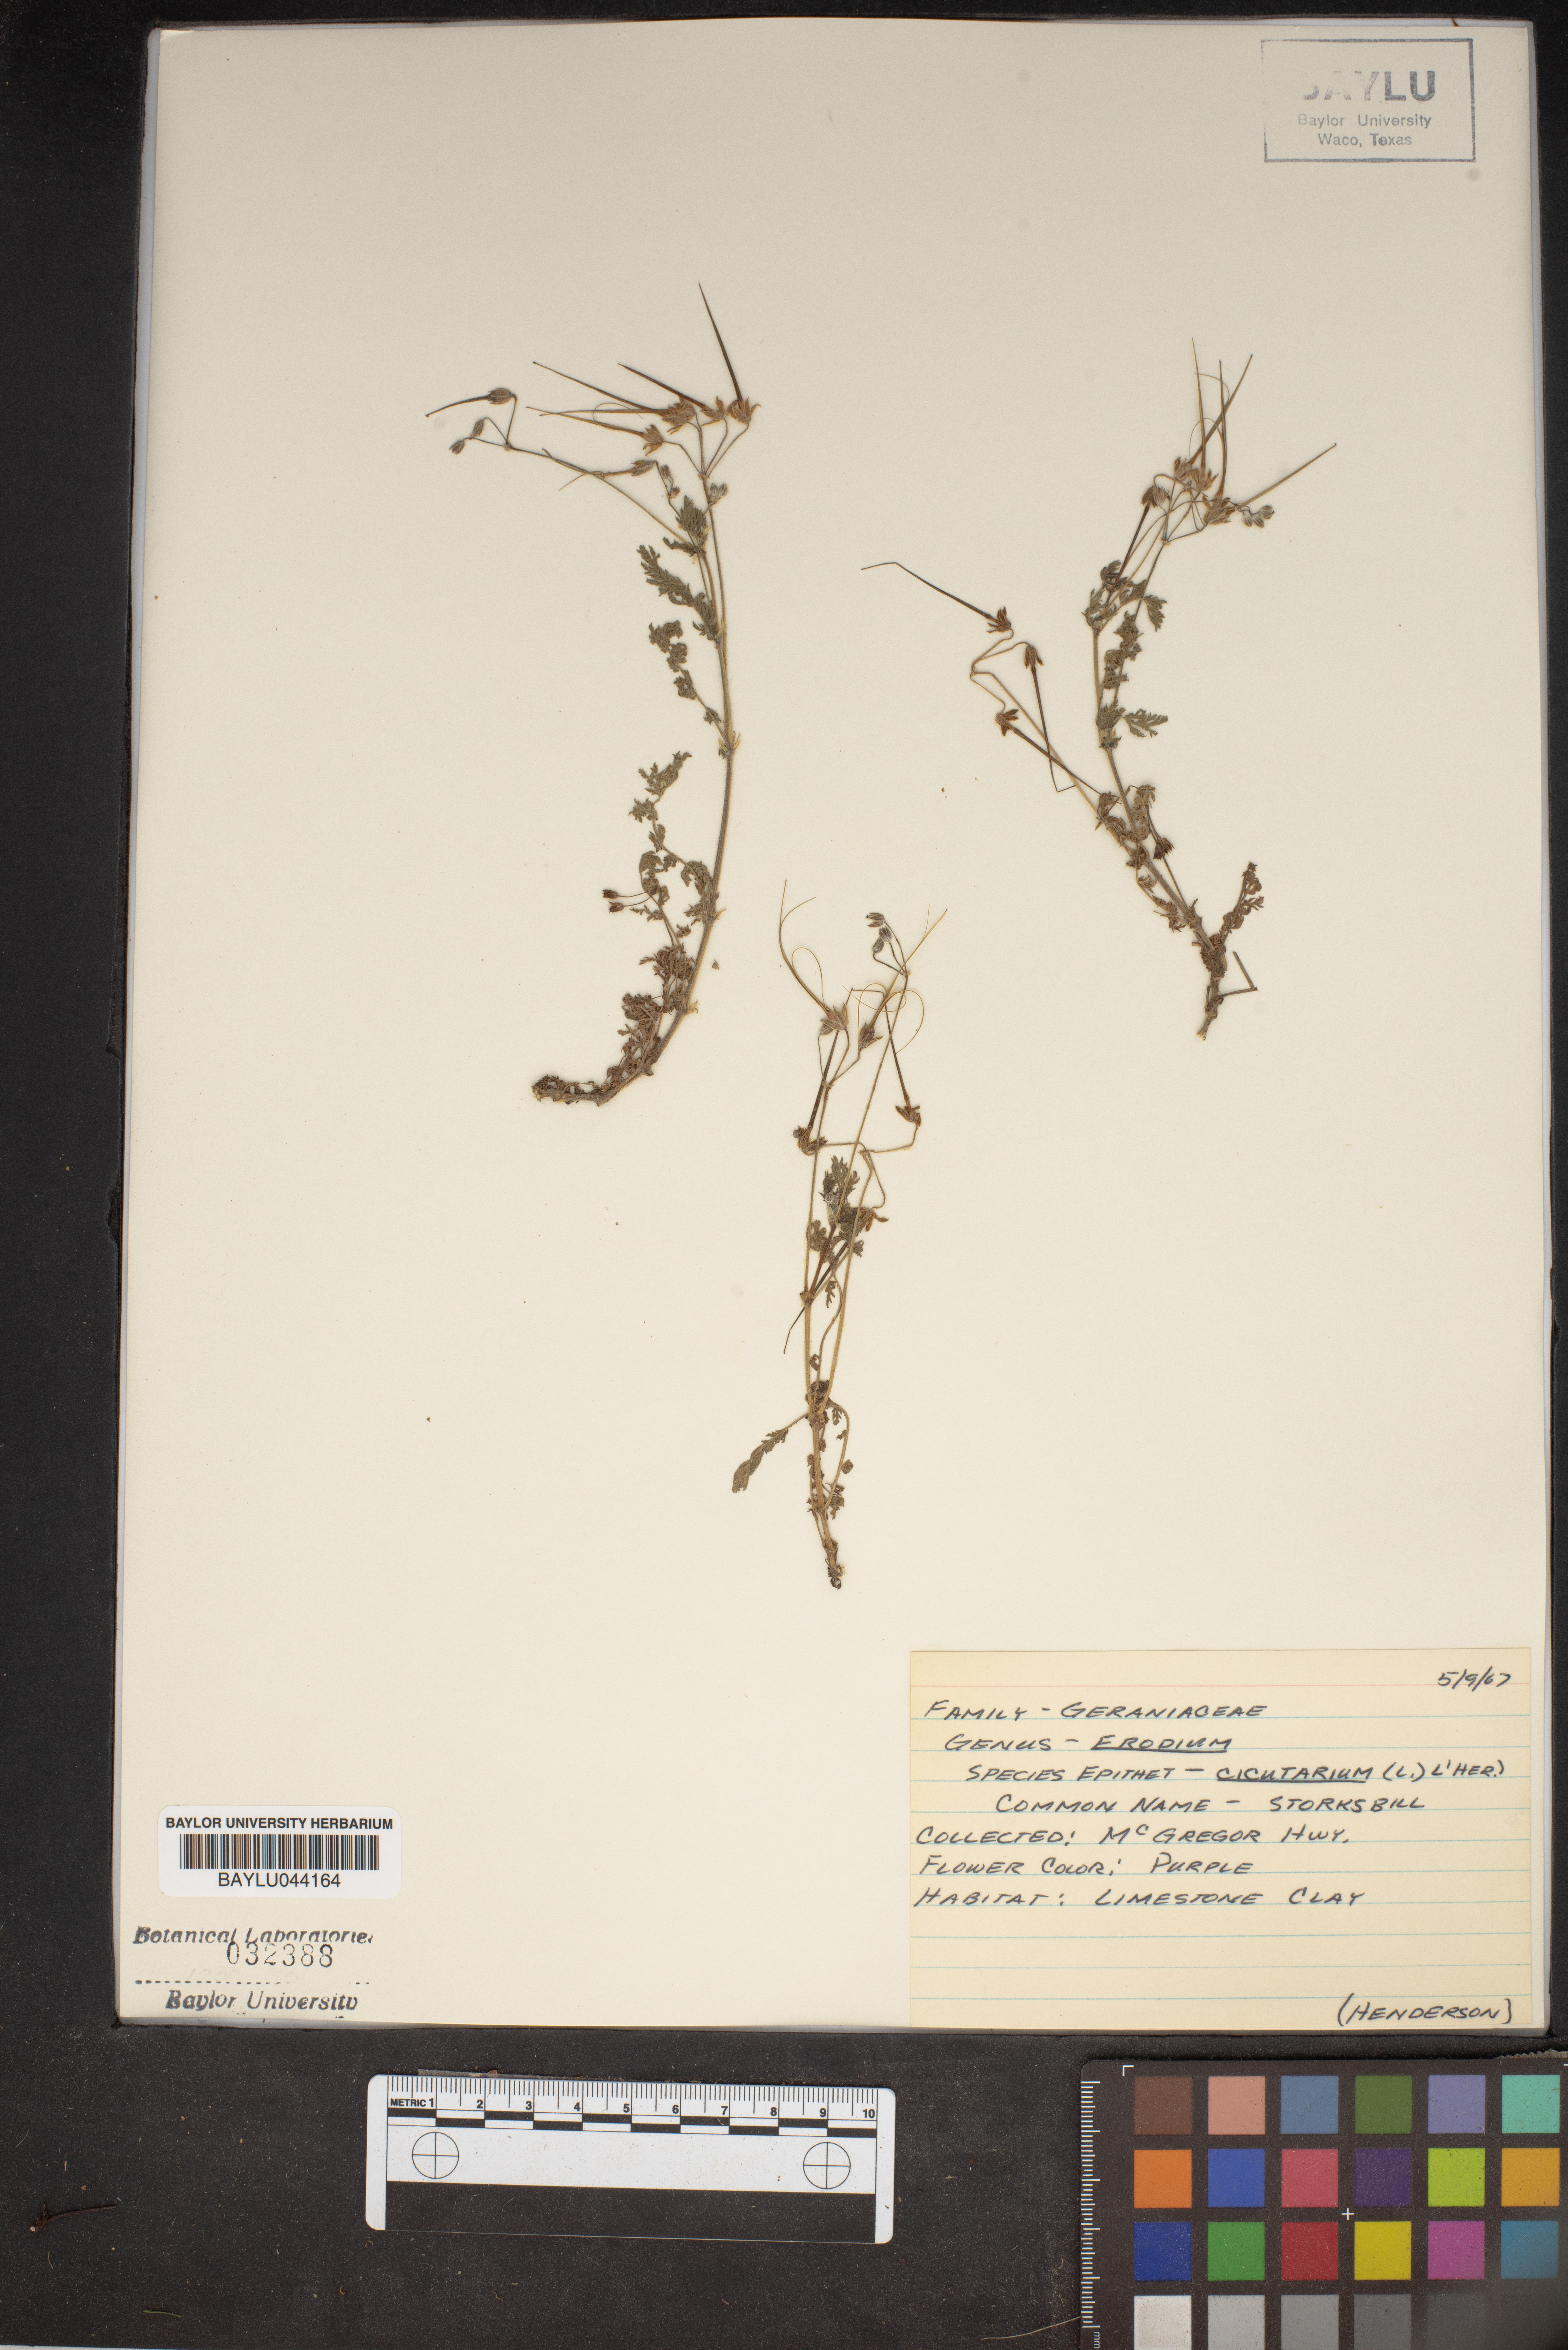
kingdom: Plantae
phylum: Tracheophyta
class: Magnoliopsida
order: Geraniales
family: Geraniaceae
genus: Erodium
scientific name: Erodium cicutarium
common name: Common stork's-bill
